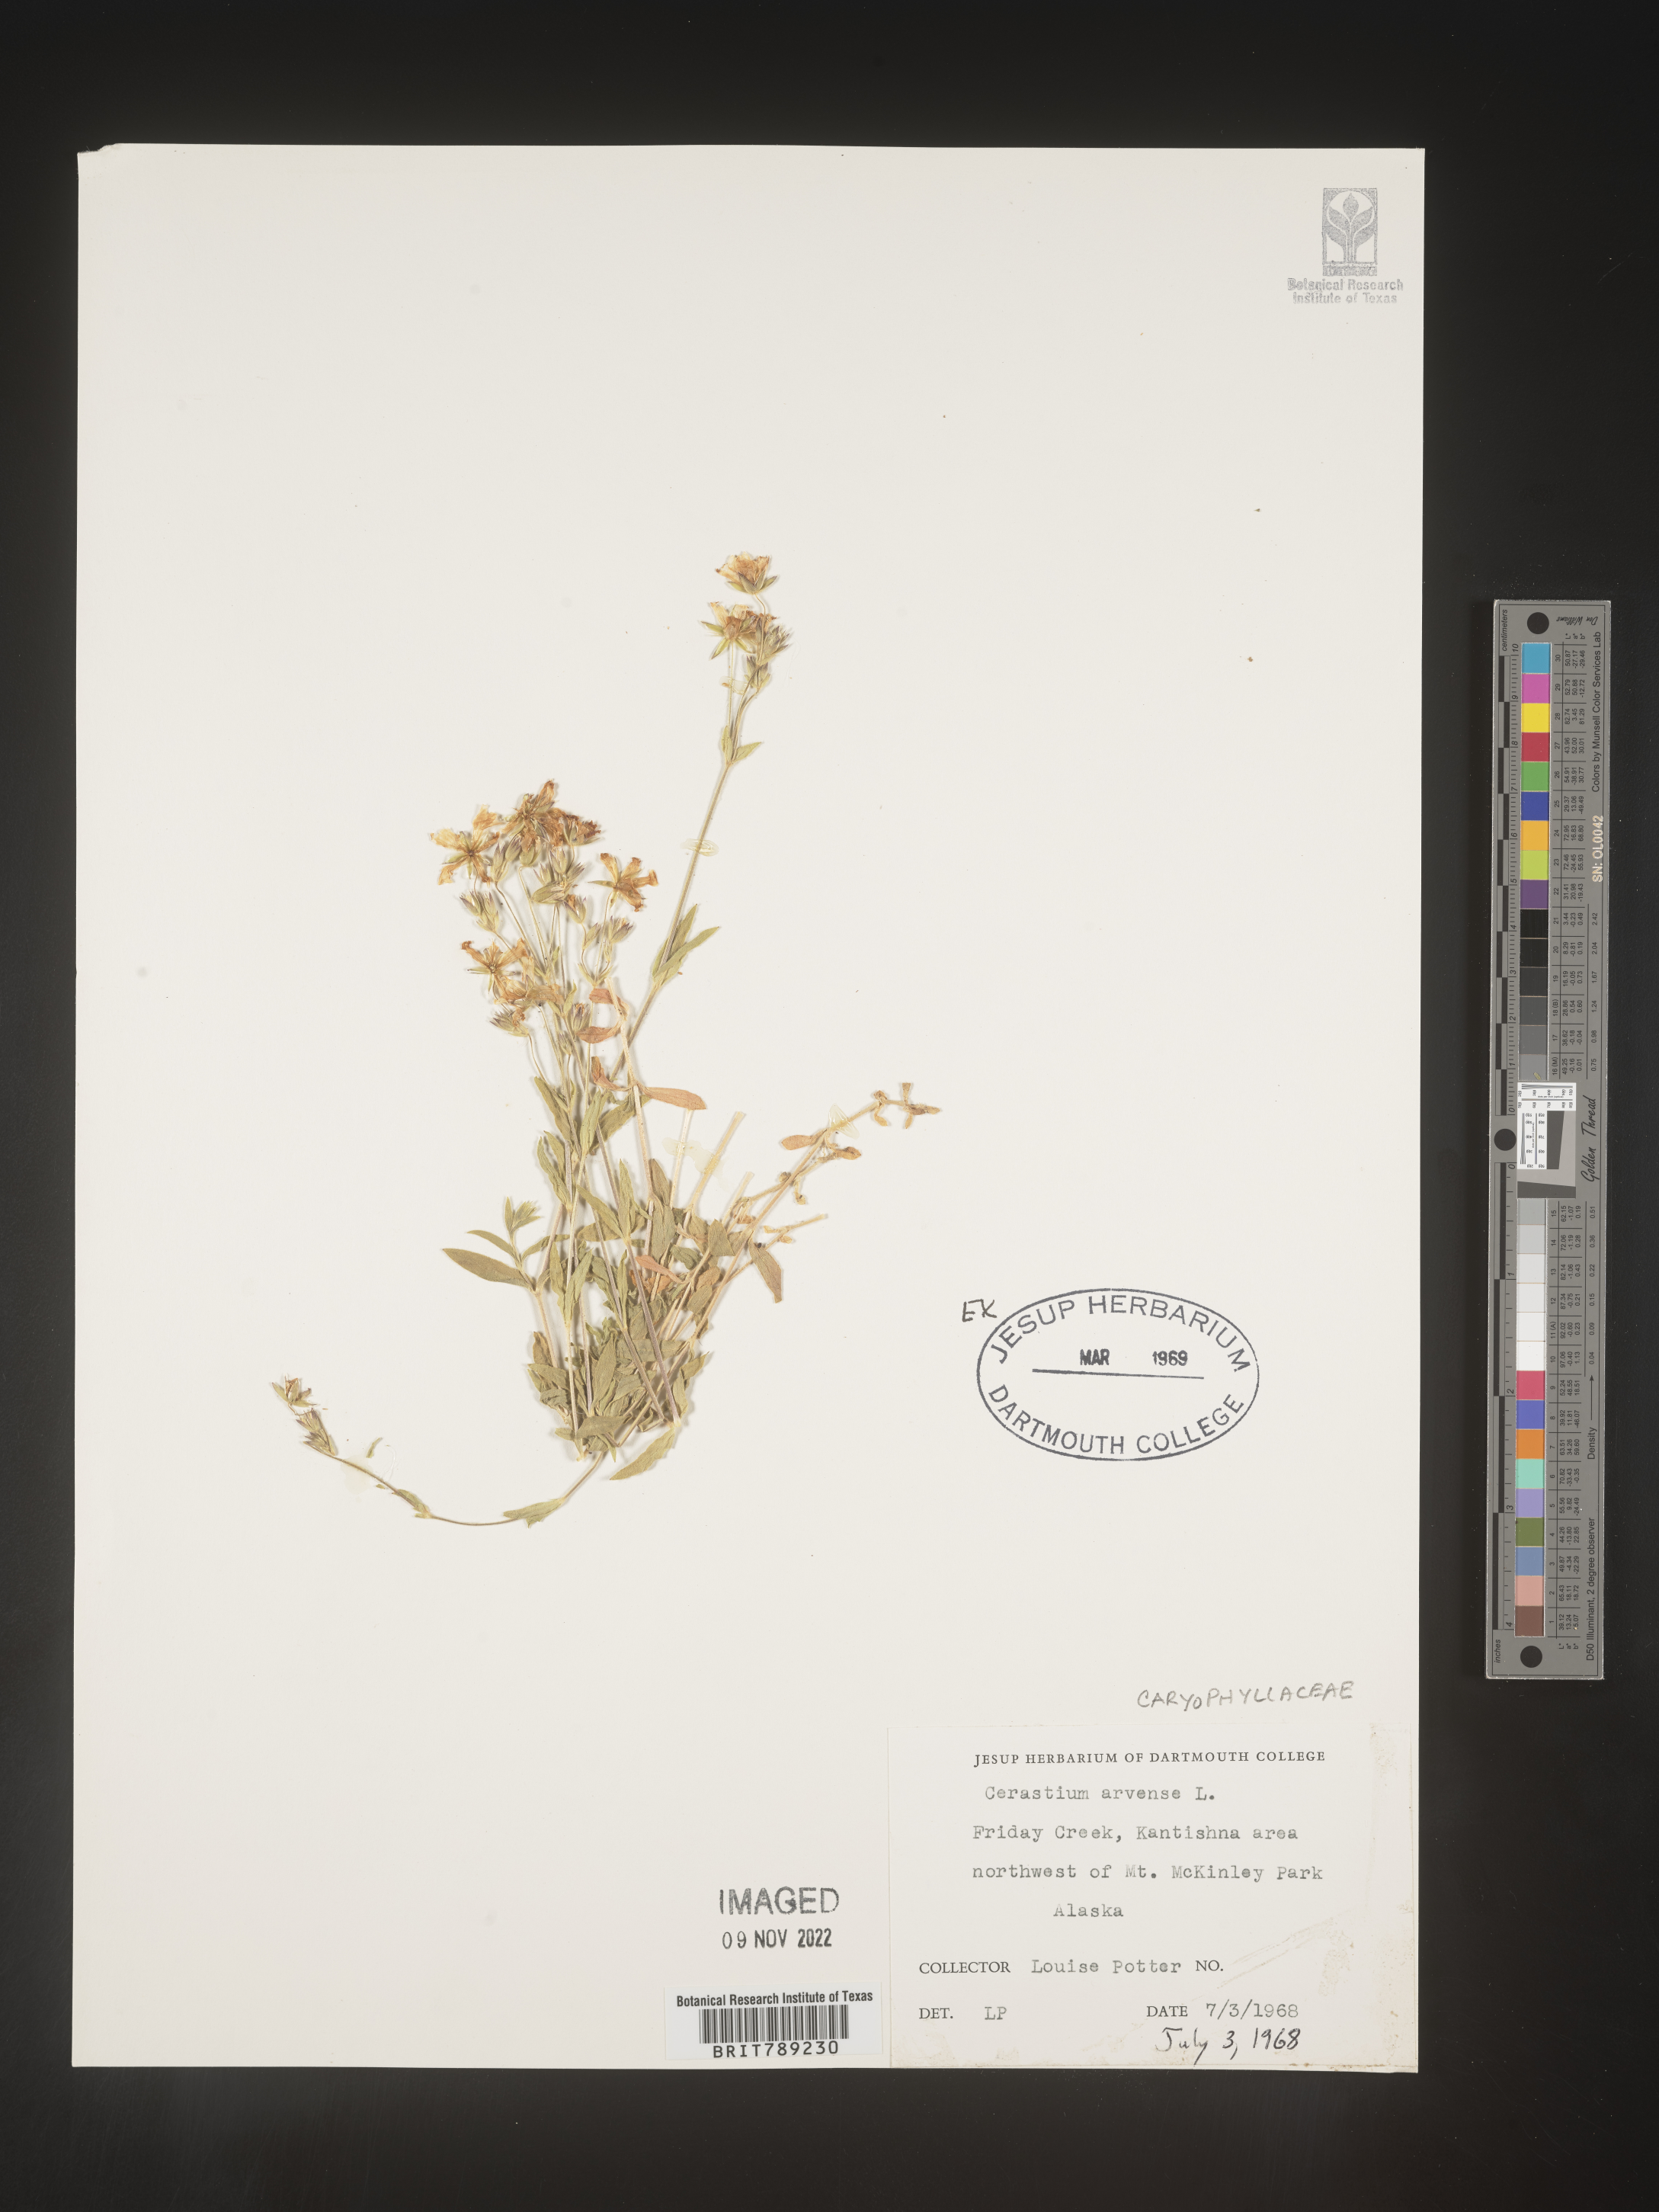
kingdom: Plantae
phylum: Tracheophyta
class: Magnoliopsida
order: Caryophyllales
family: Caryophyllaceae
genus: Cerastium
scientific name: Cerastium arvense
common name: Field mouse-ear
